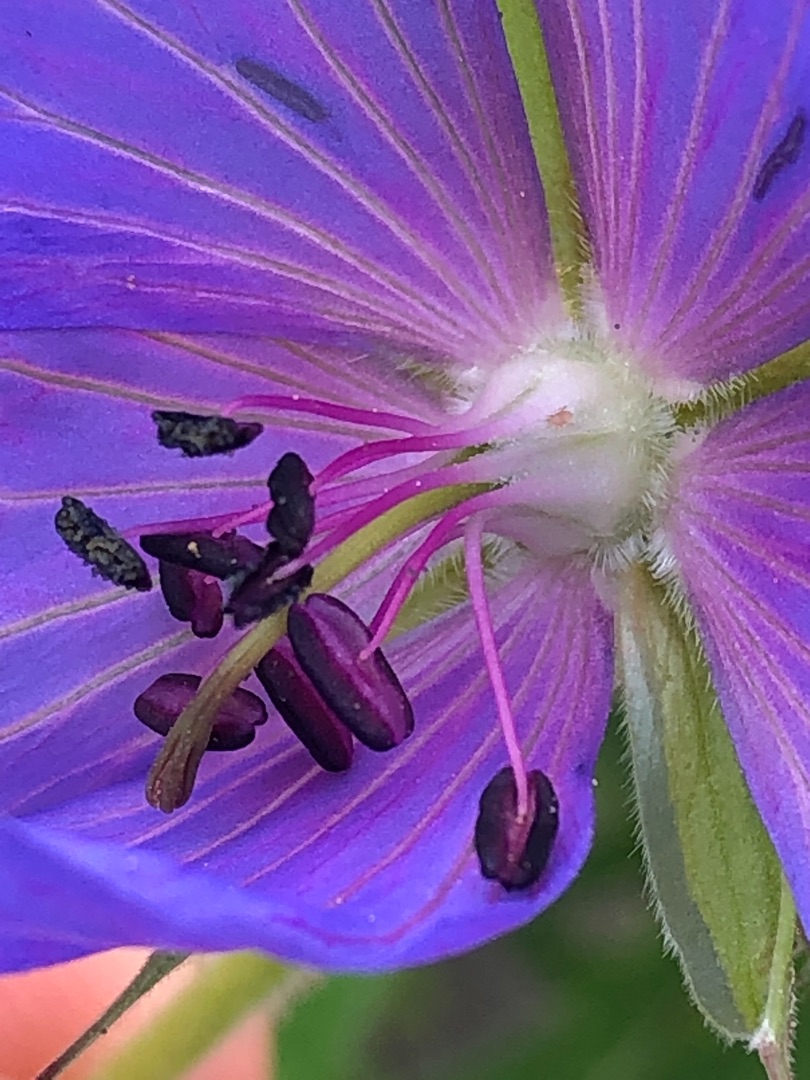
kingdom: Plantae
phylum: Tracheophyta
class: Magnoliopsida
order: Geraniales
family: Geraniaceae
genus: Geranium
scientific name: Geranium pratense
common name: Eng-storkenæb
